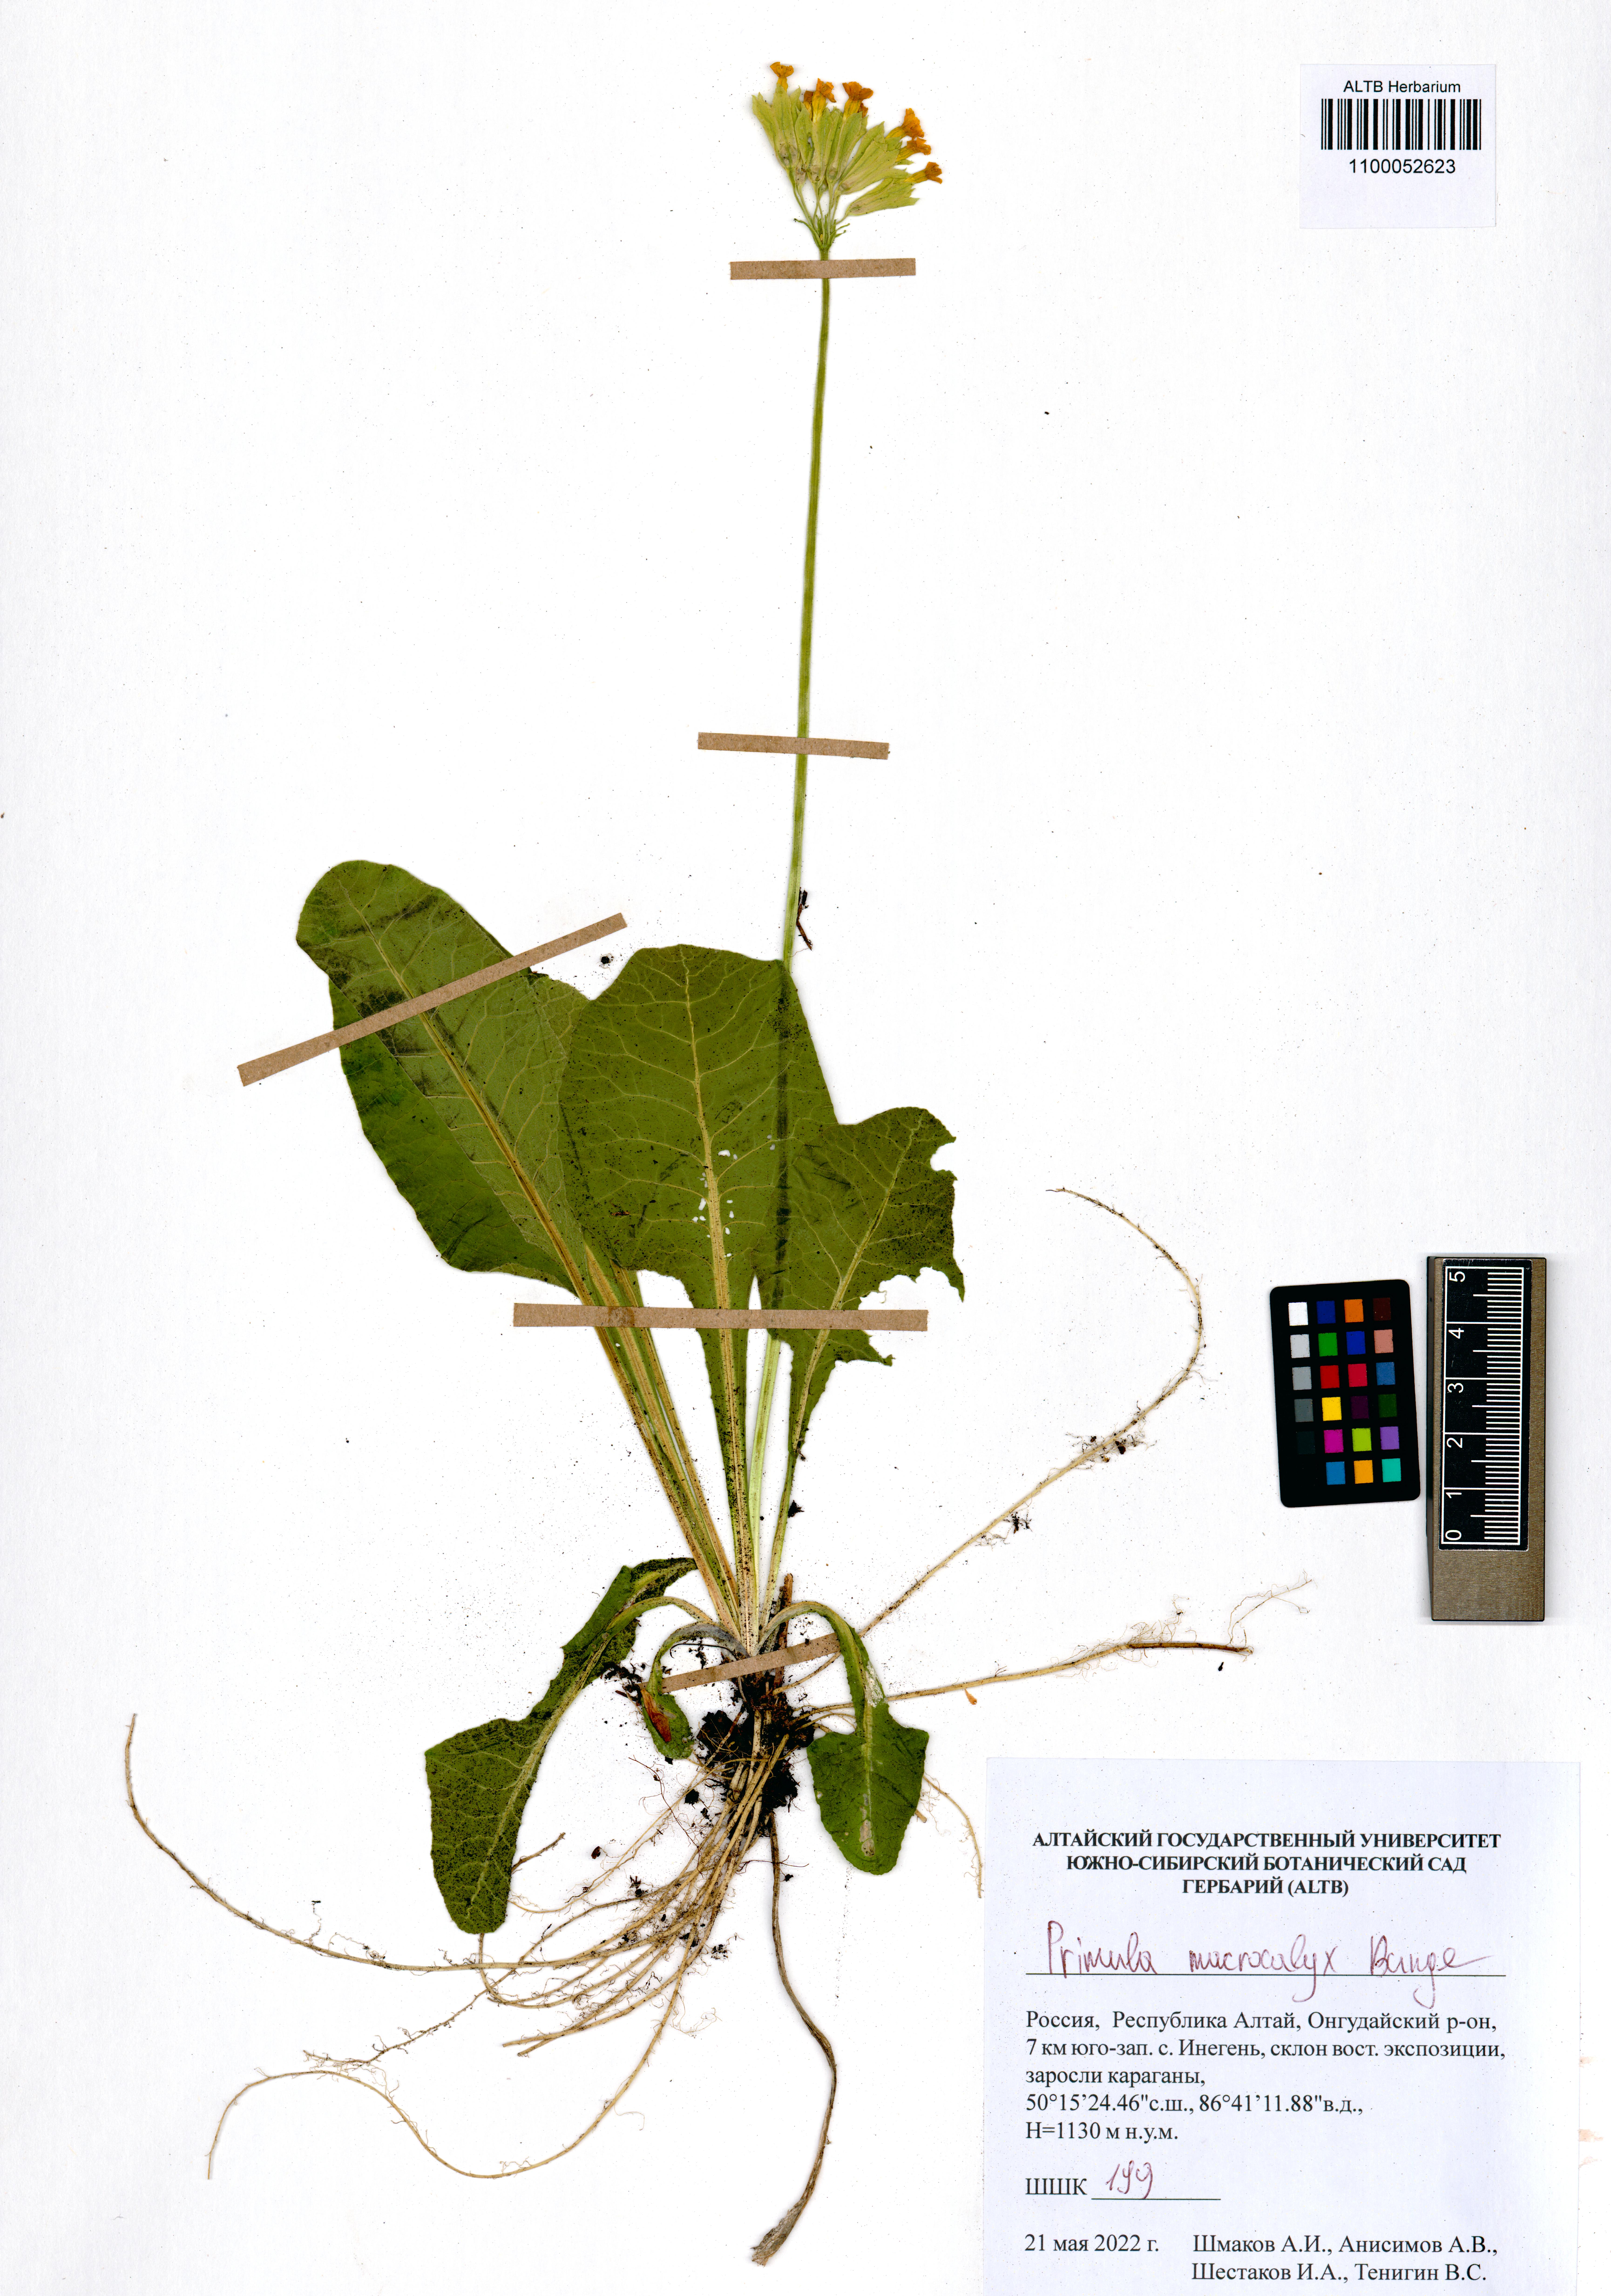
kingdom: Plantae
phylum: Tracheophyta
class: Magnoliopsida
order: Ericales
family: Primulaceae
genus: Primula
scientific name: Primula veris
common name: Cowslip
